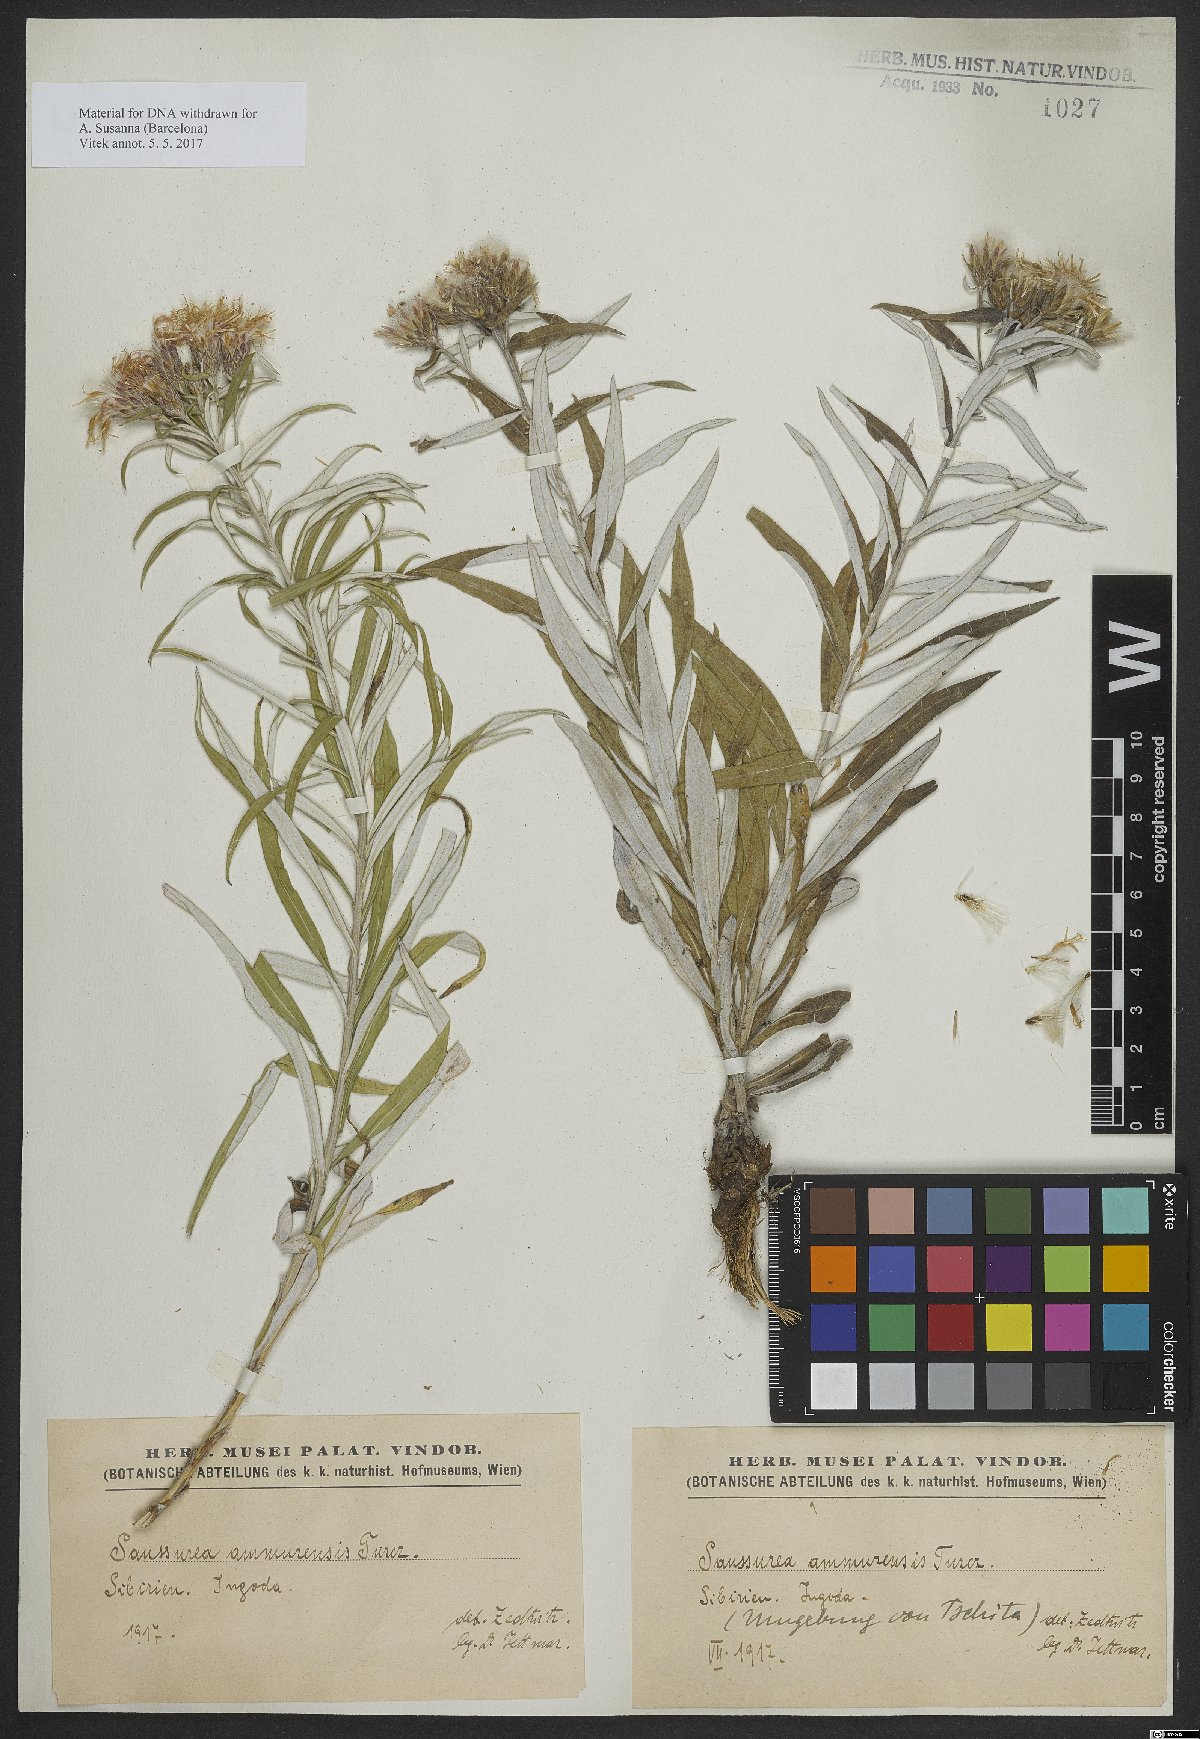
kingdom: Plantae
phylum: Tracheophyta
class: Magnoliopsida
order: Asterales
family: Asteraceae
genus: Saussurea
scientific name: Saussurea amurensis
